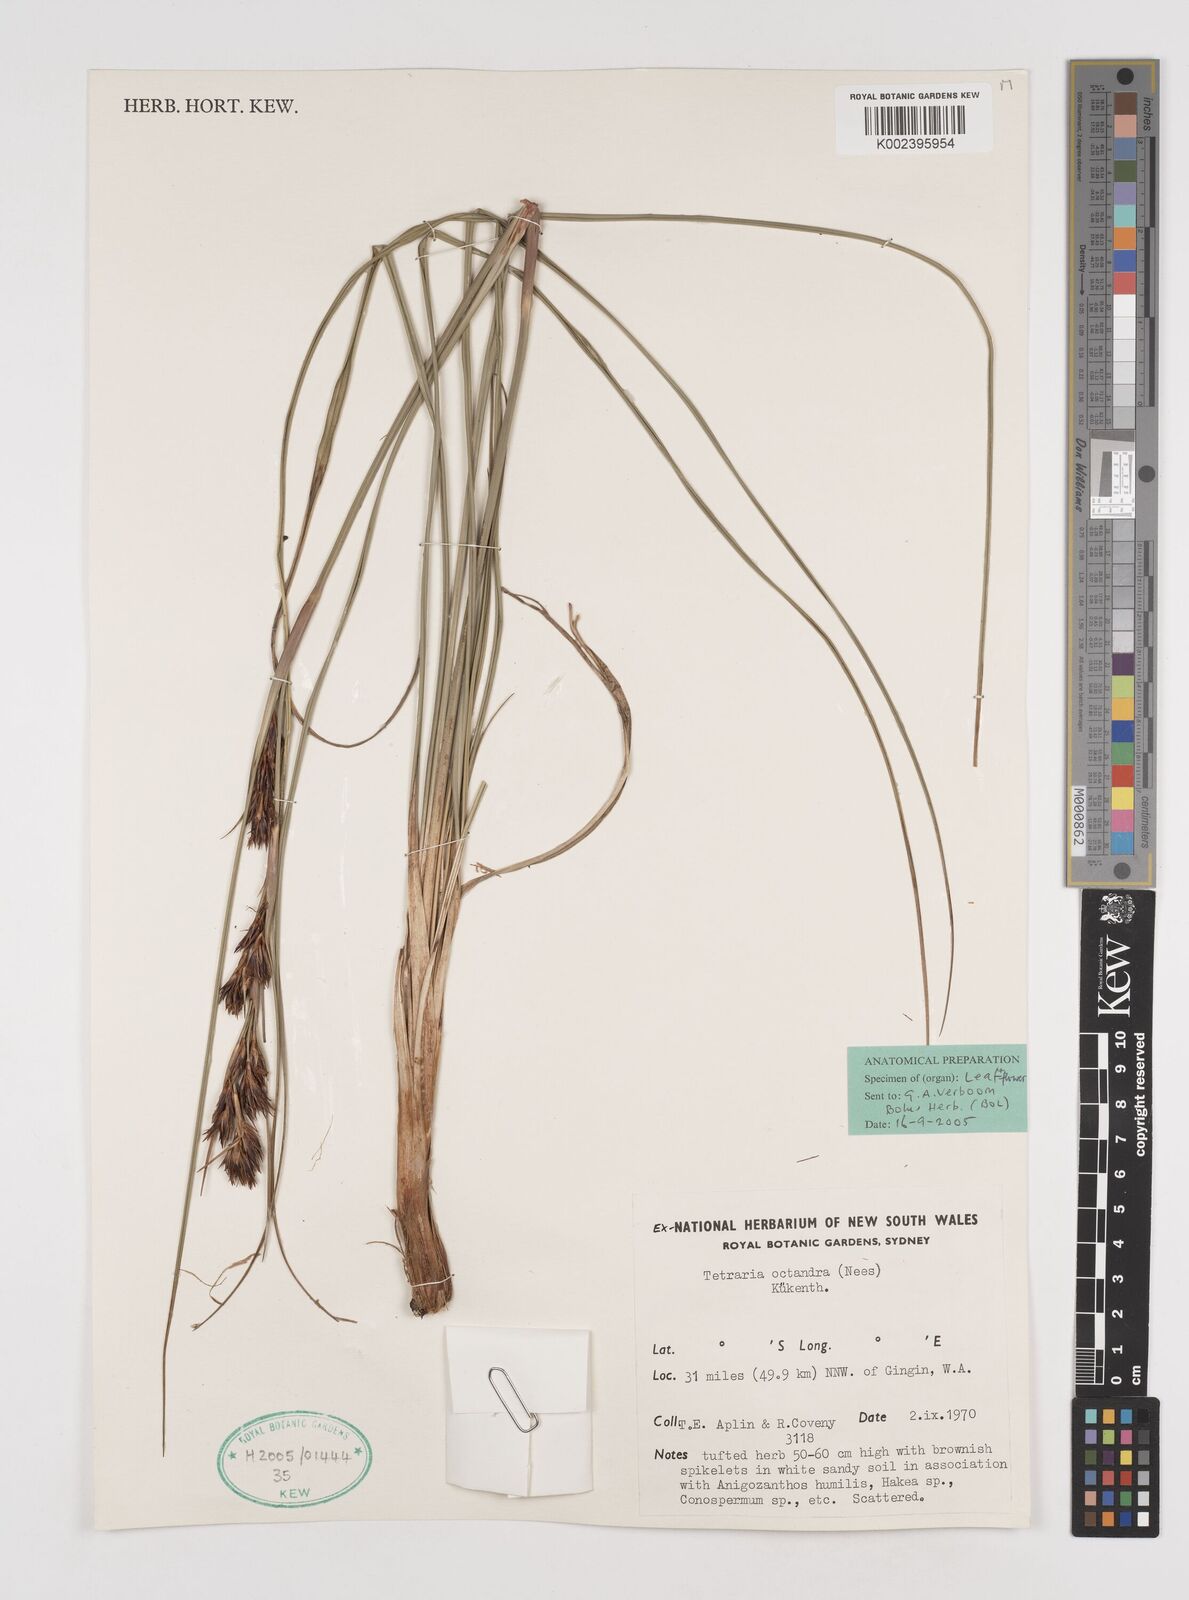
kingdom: Plantae
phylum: Tracheophyta
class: Liliopsida
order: Poales
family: Cyperaceae
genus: Tetraria
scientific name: Tetraria octandra
